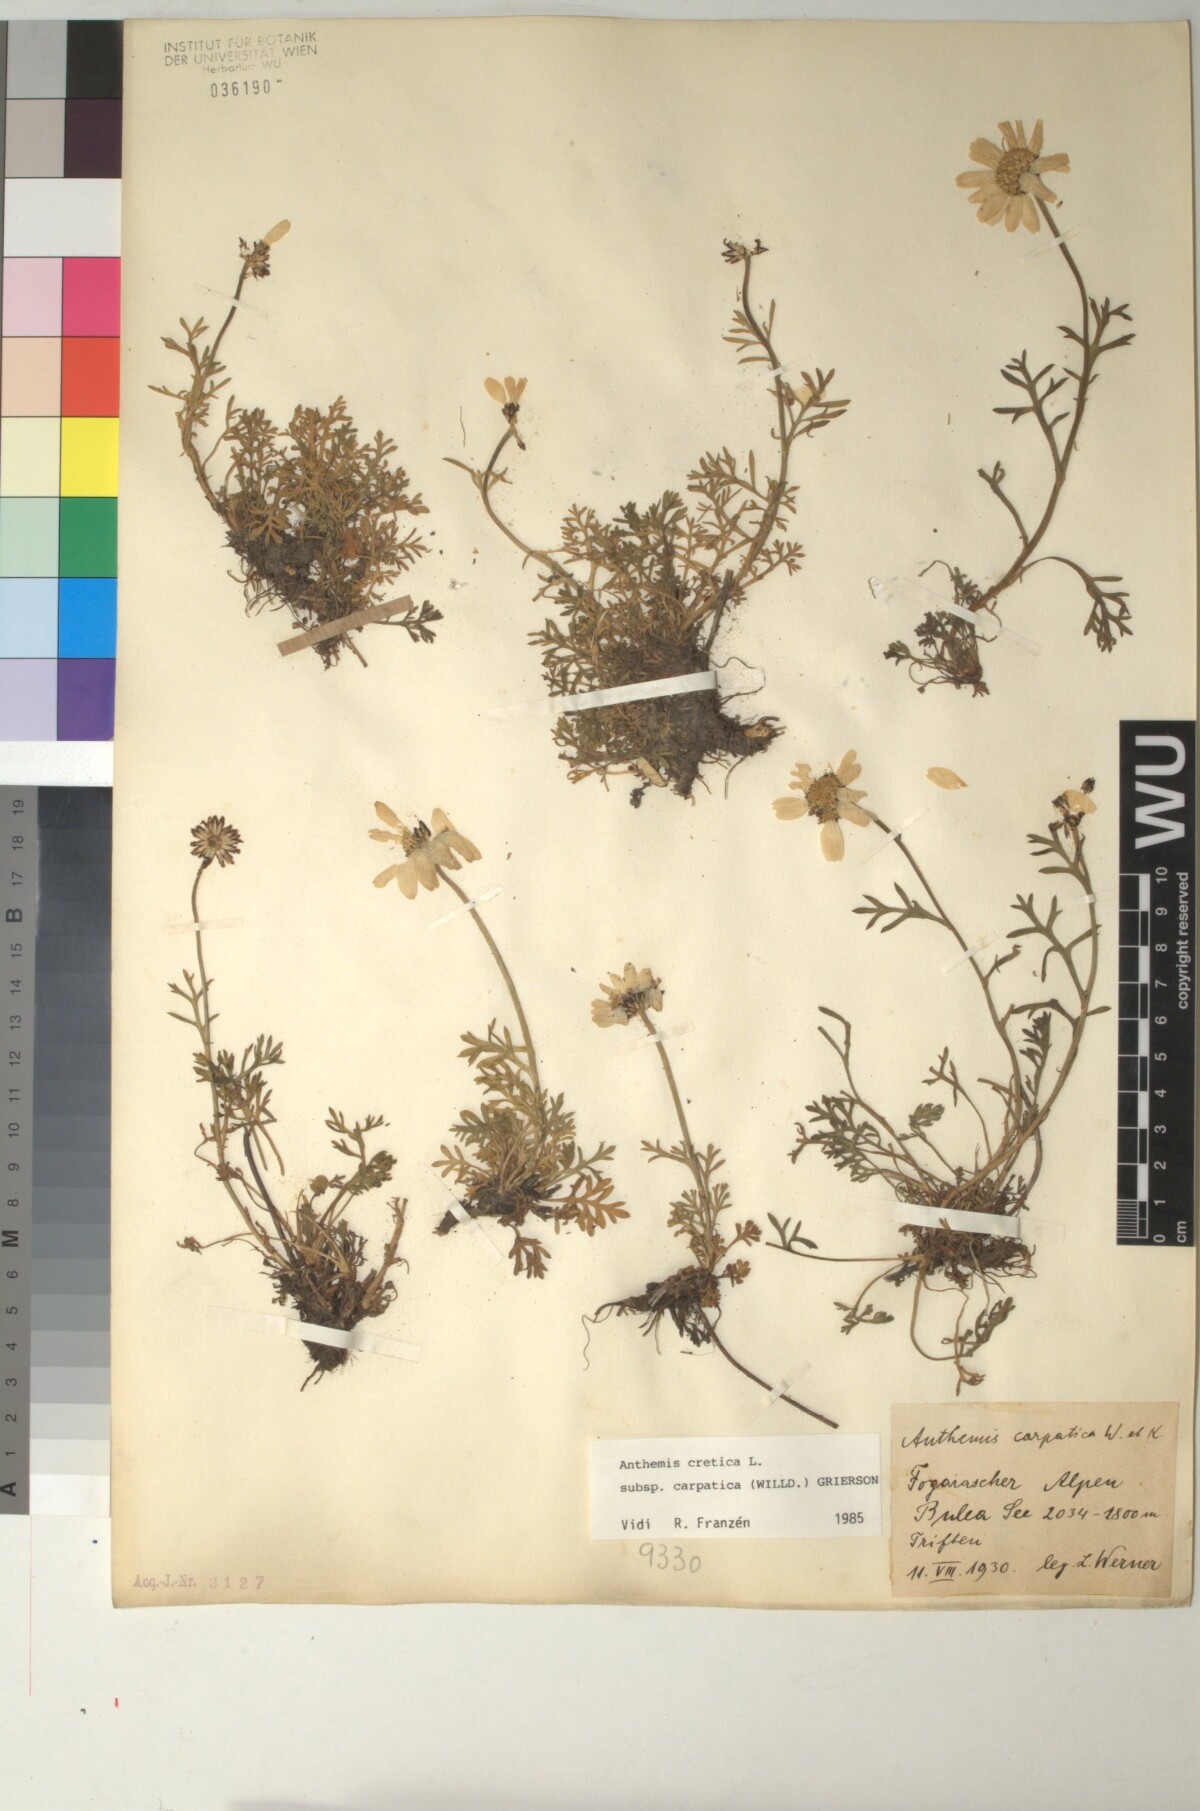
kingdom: Plantae
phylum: Tracheophyta
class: Magnoliopsida
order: Asterales
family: Asteraceae
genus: Anthemis
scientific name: Anthemis cretica
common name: Mountain dog-daisy
